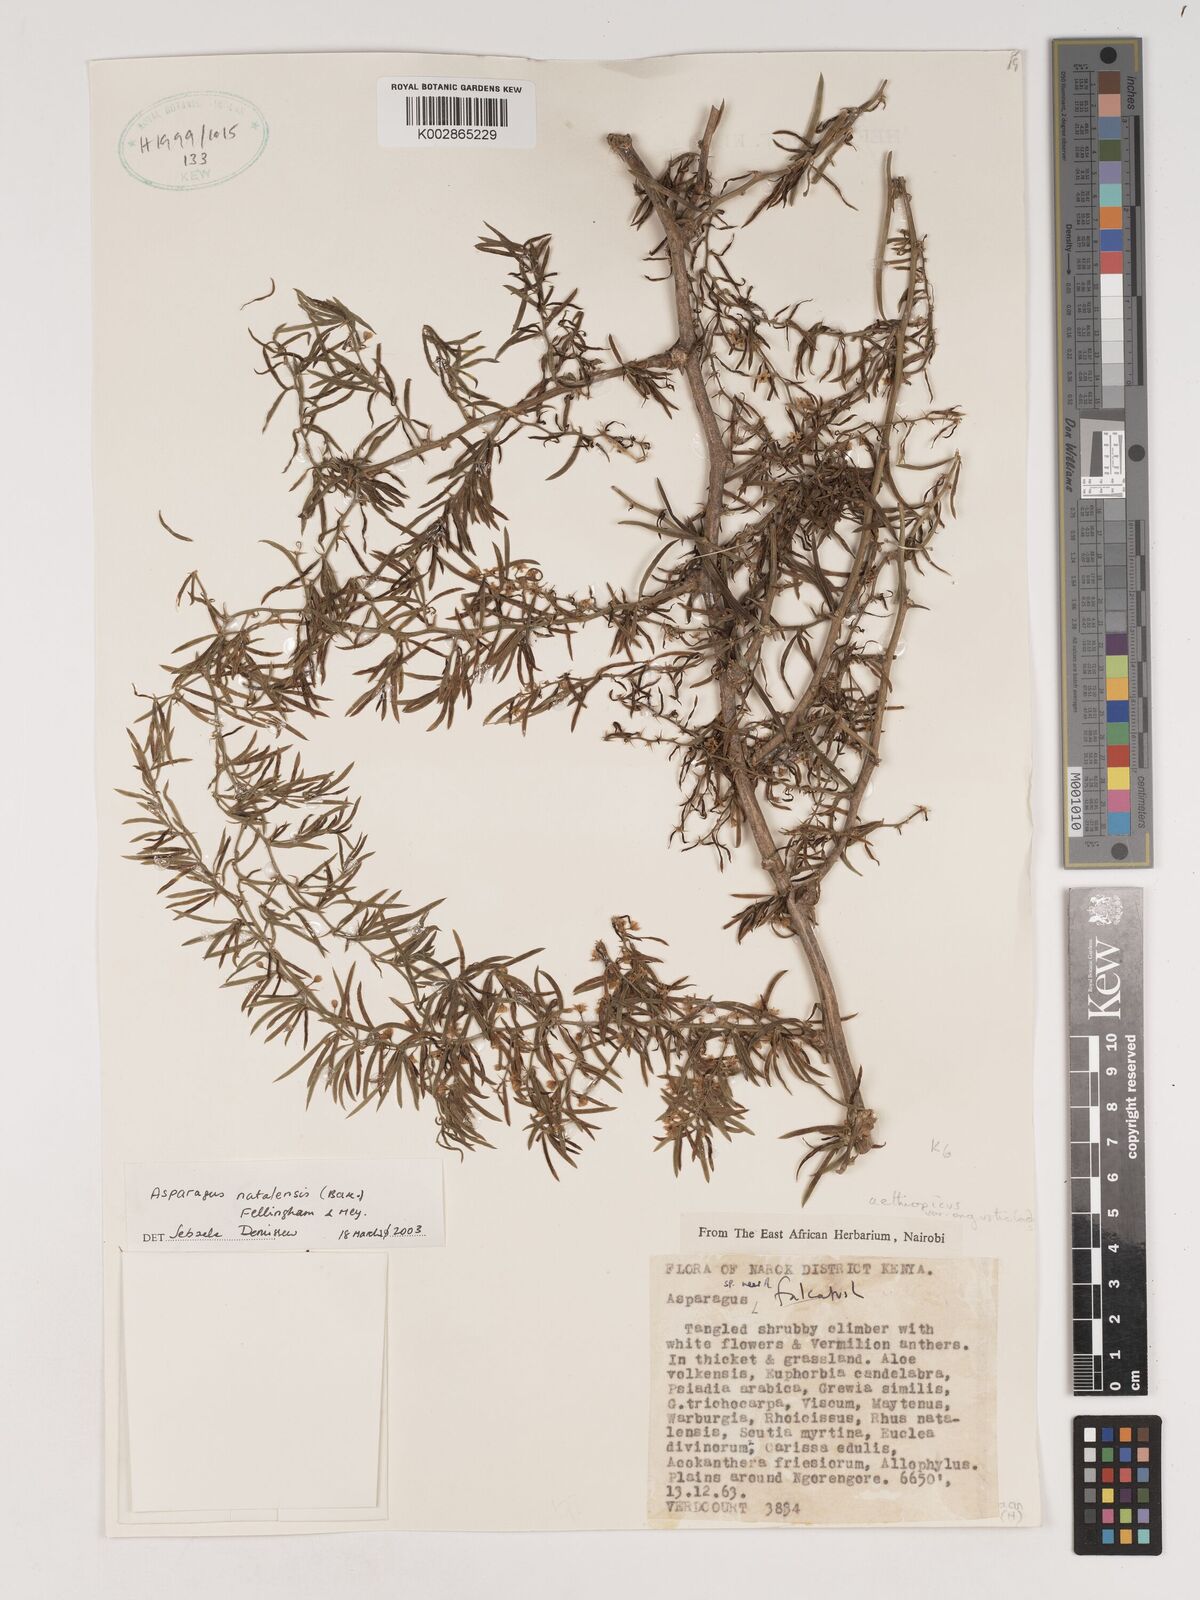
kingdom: Plantae
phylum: Tracheophyta
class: Liliopsida
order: Asparagales
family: Asparagaceae
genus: Asparagus
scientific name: Asparagus natalensis
